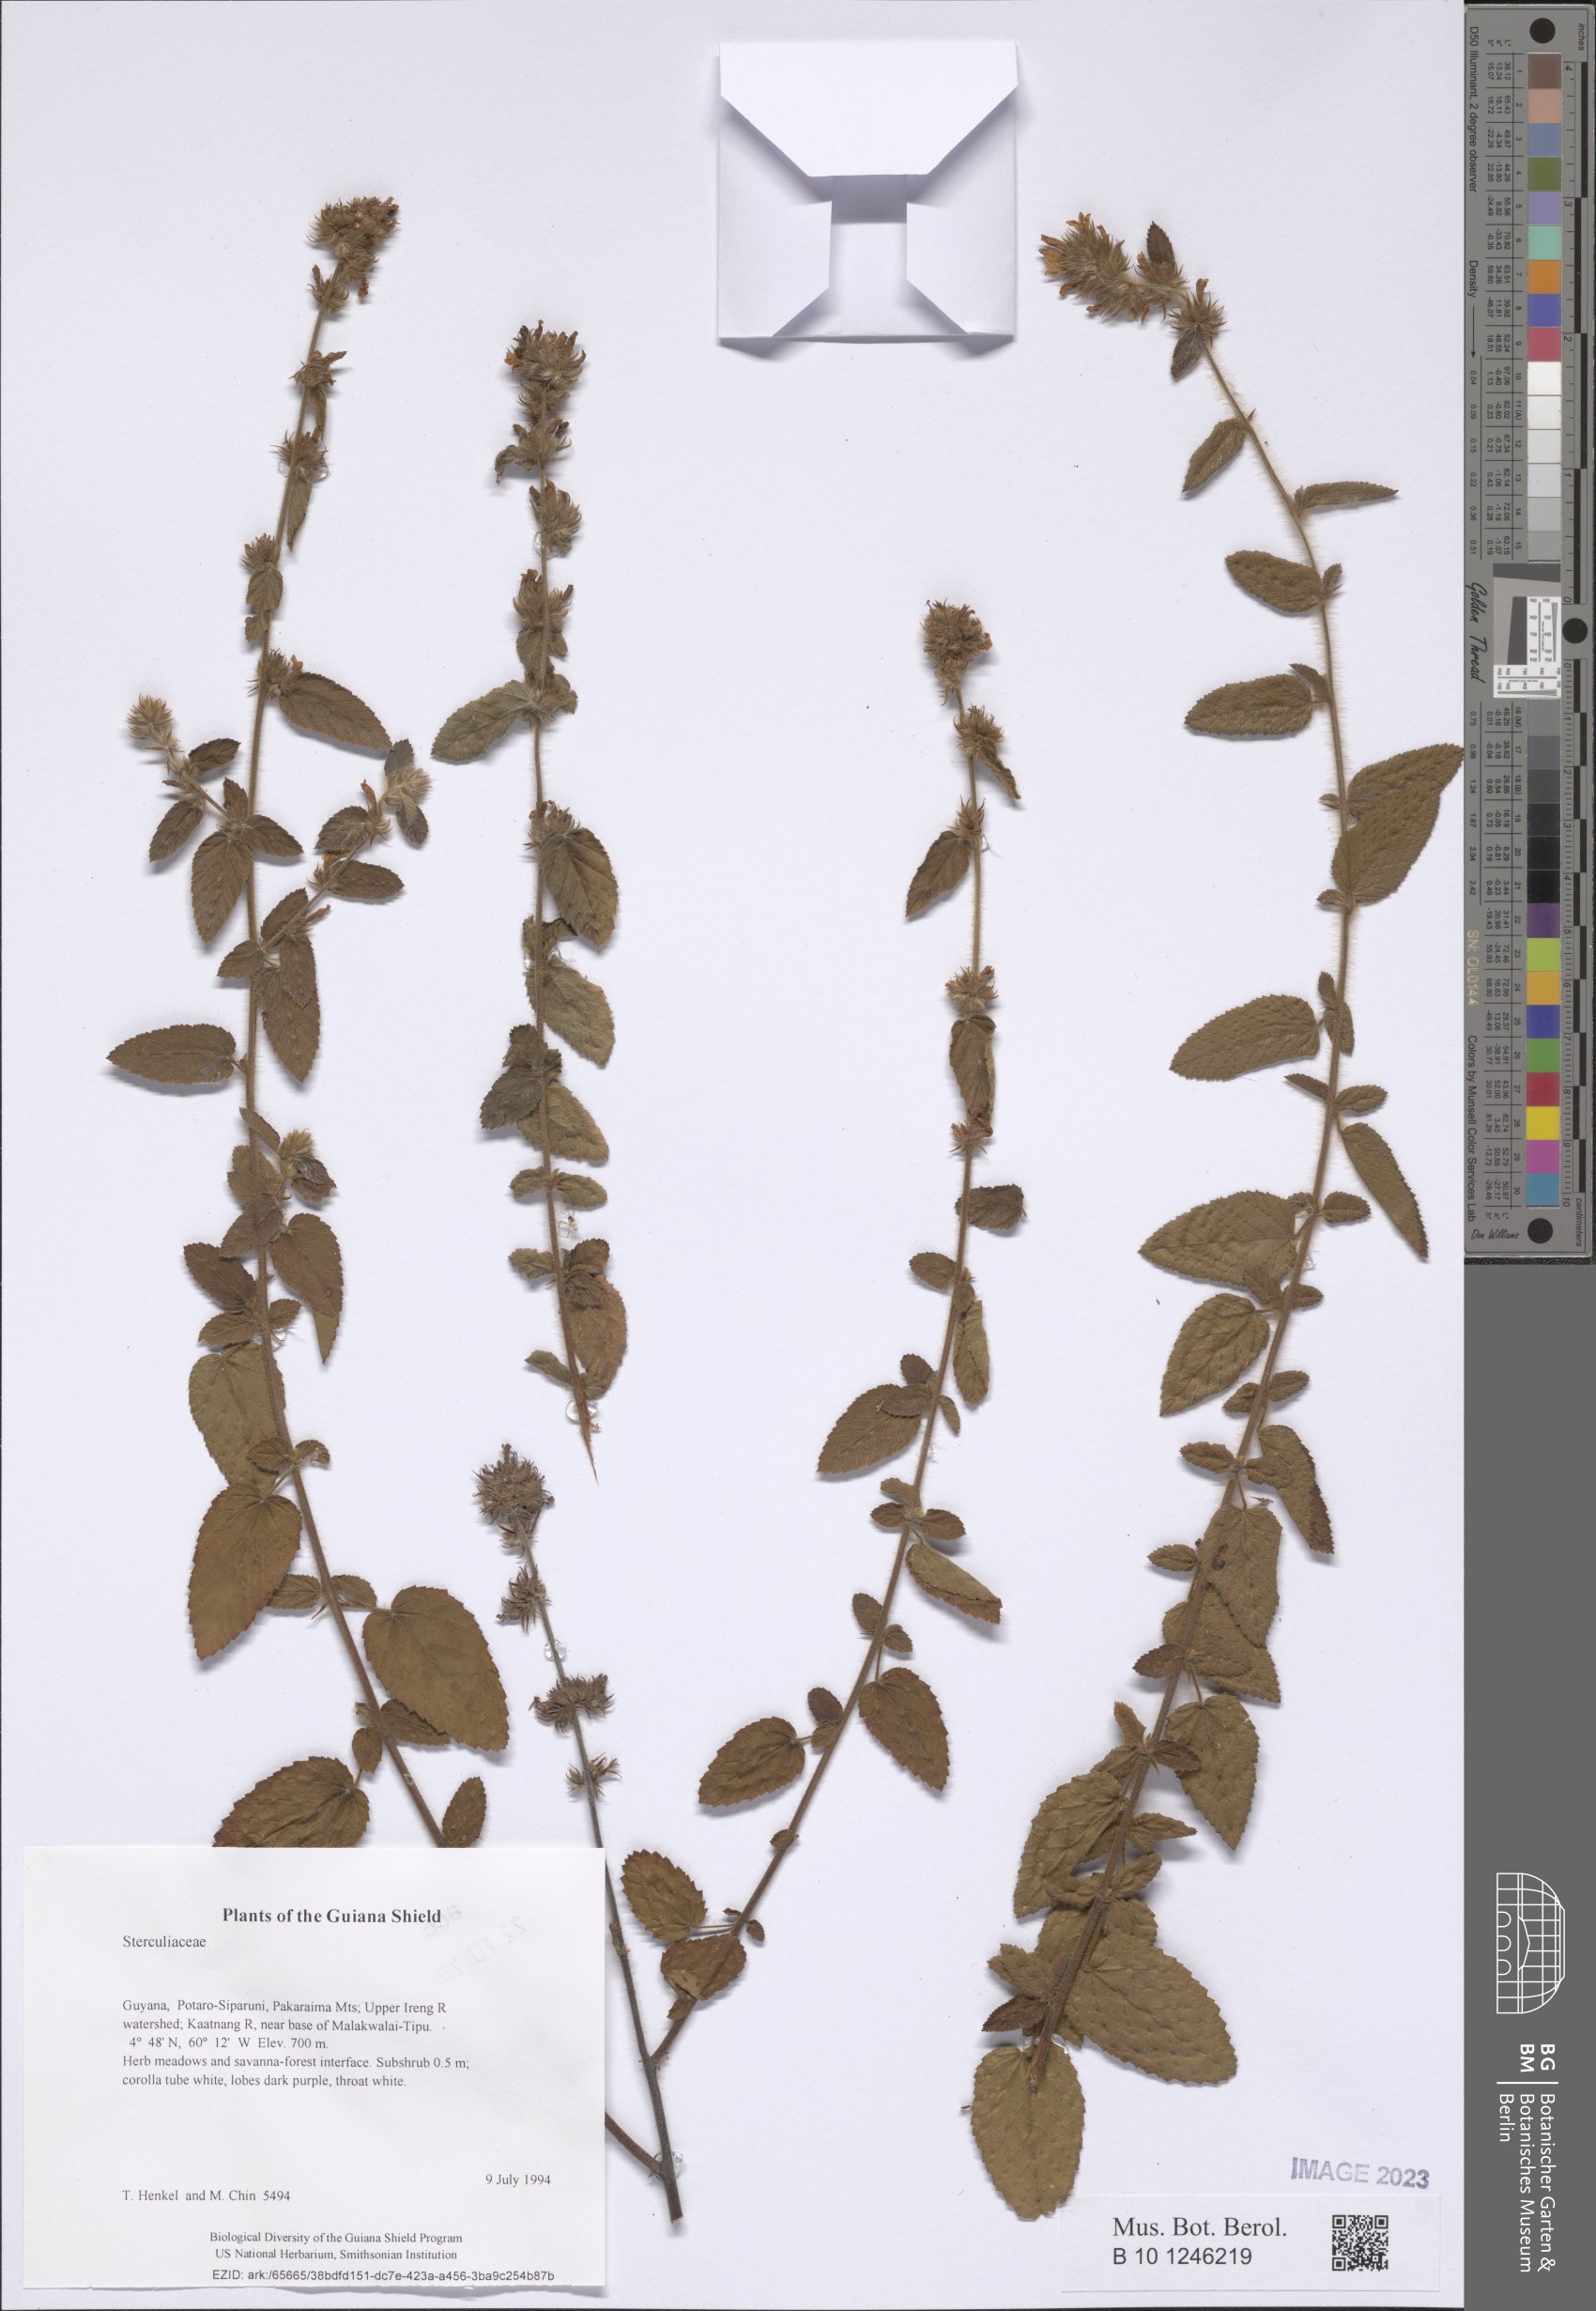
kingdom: Plantae
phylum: Tracheophyta
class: Magnoliopsida
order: Malvales
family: Sterculiaceae
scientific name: Sterculiaceae
